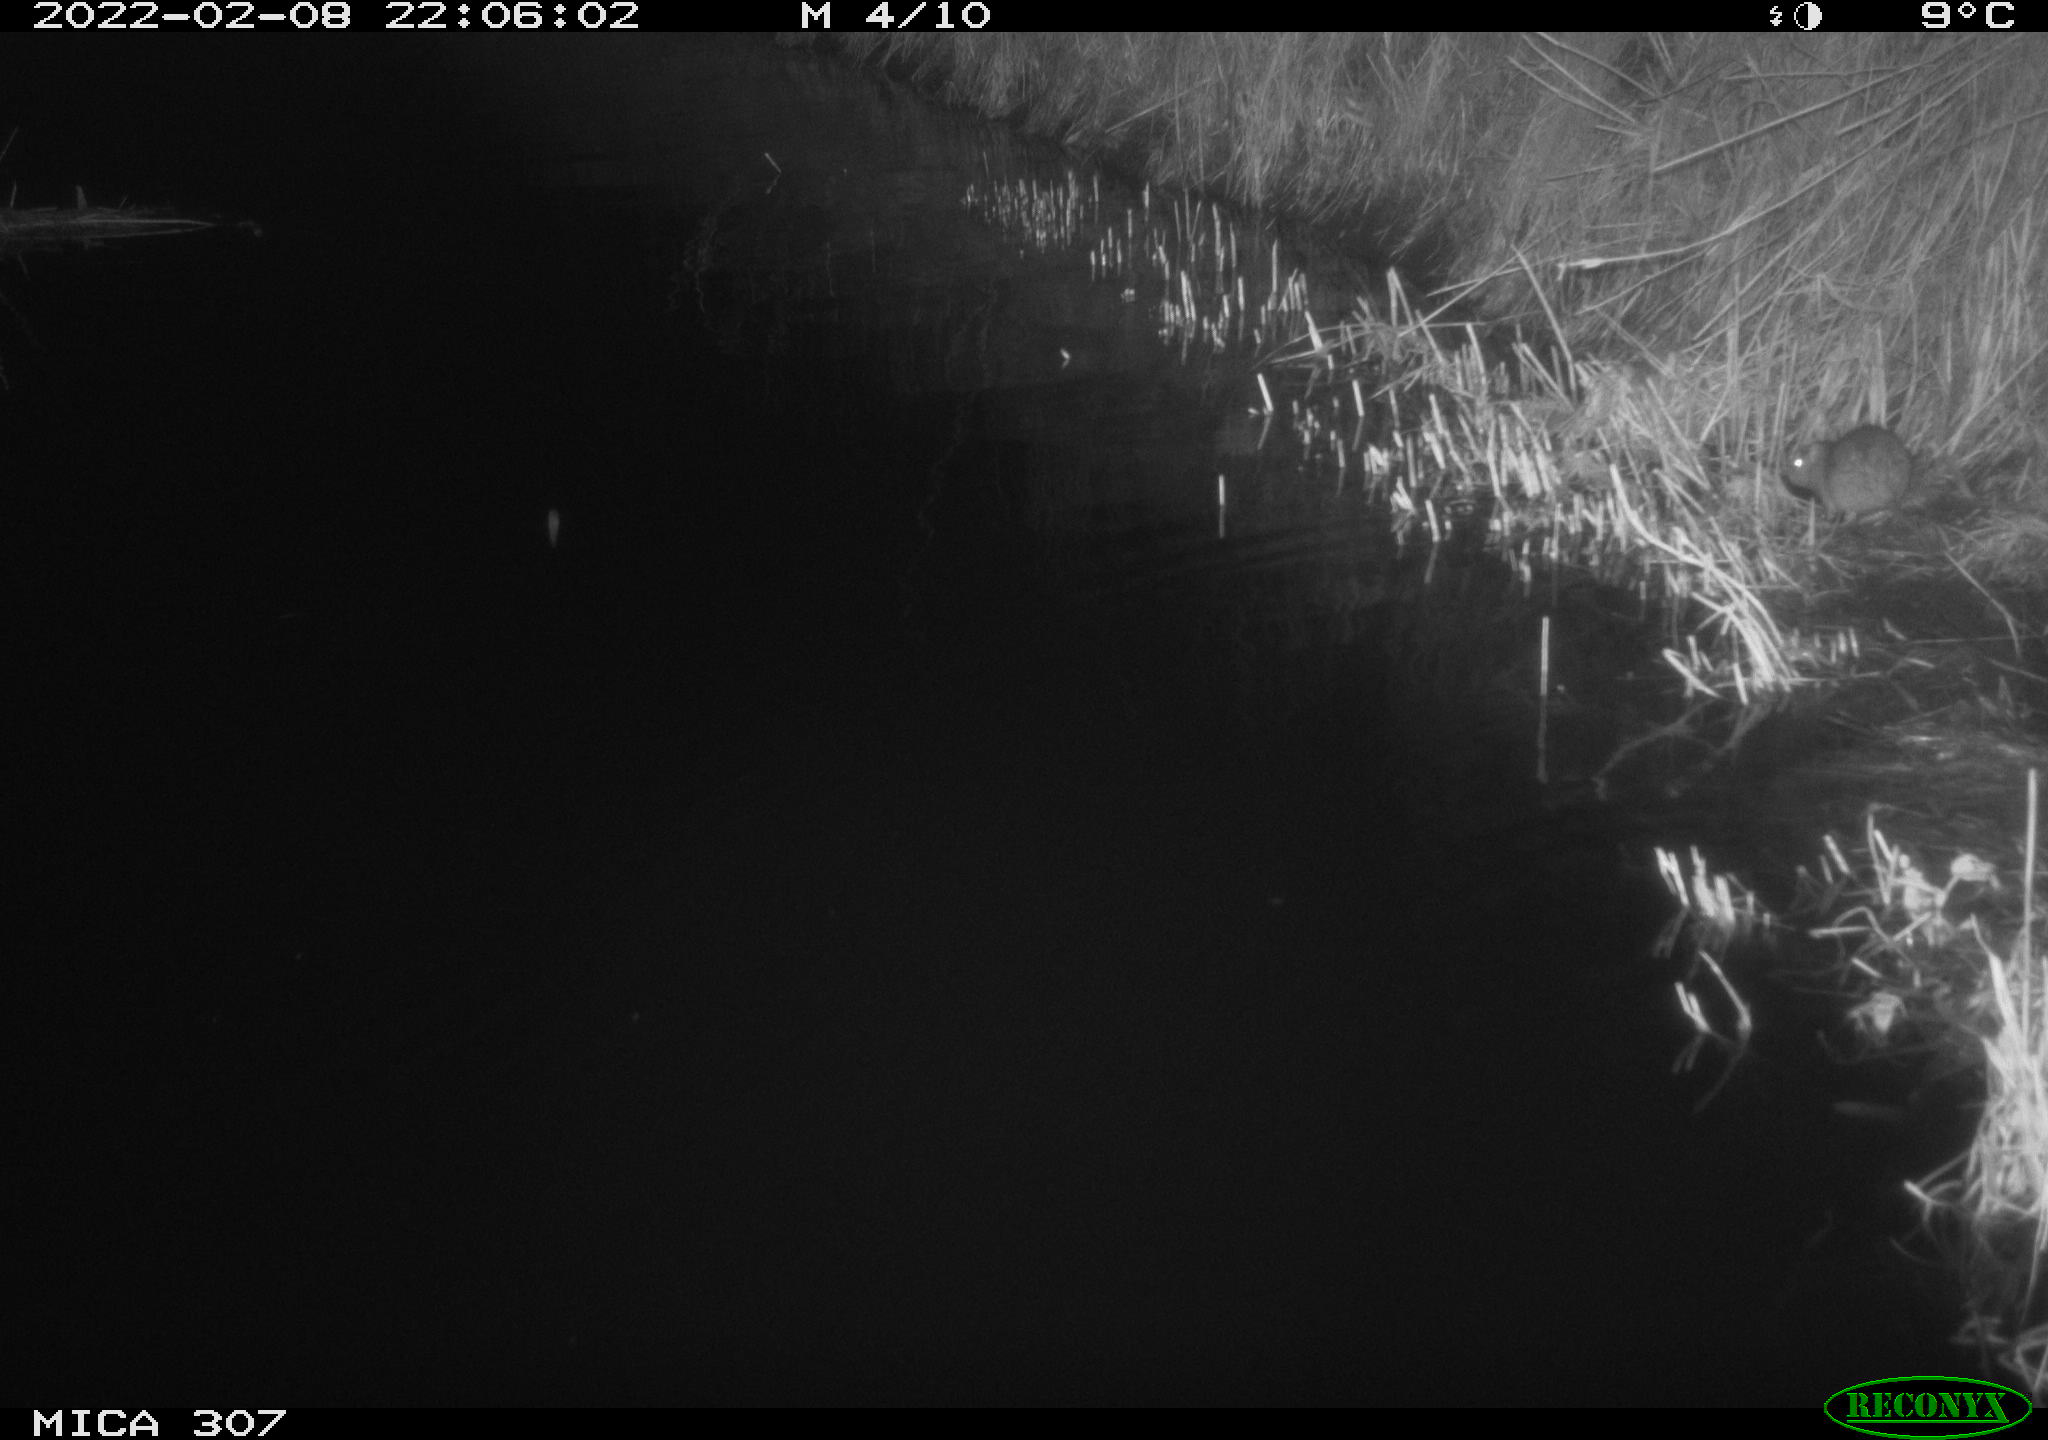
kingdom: Animalia
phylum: Chordata
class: Mammalia
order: Rodentia
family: Muridae
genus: Rattus
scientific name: Rattus norvegicus
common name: Brown rat
